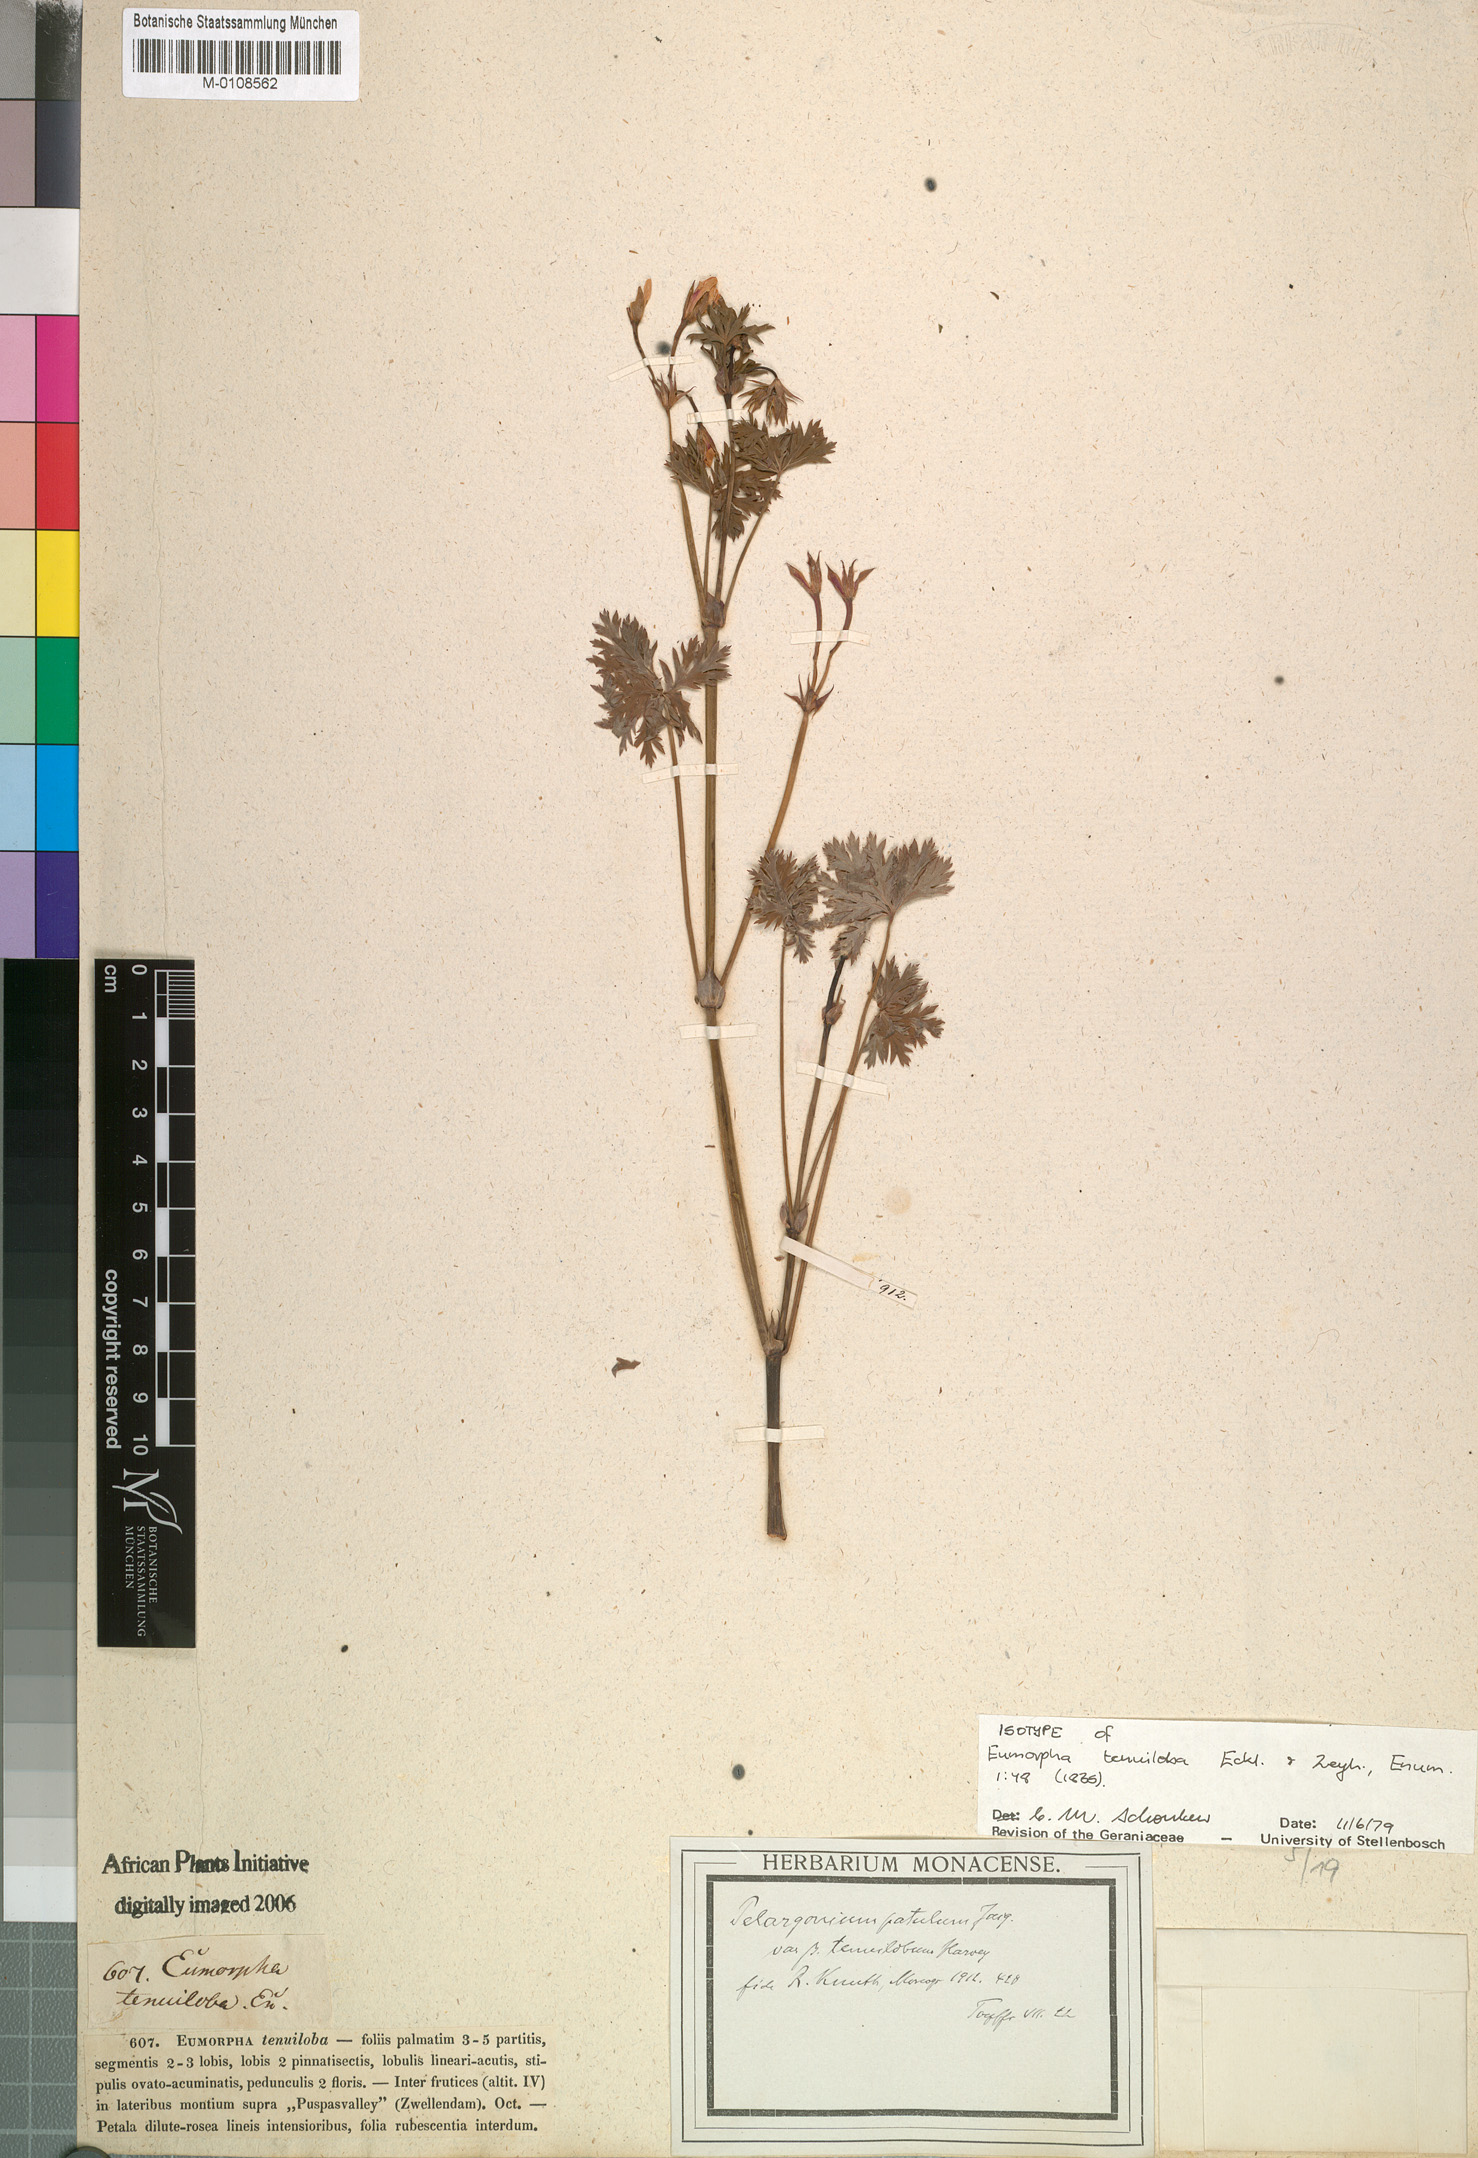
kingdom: Plantae
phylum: Tracheophyta
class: Magnoliopsida
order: Geraniales
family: Geraniaceae
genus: Pelargonium
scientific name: Pelargonium patulum
